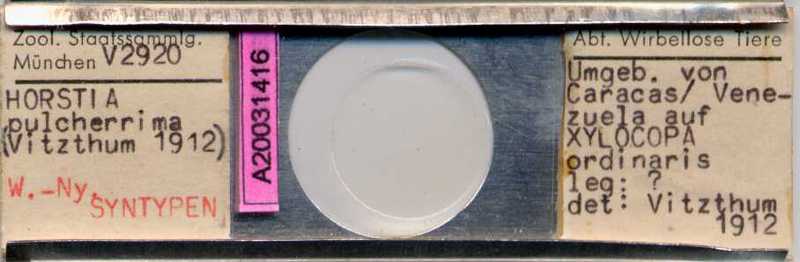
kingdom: Animalia
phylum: Hemichordata
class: Enteropneusta
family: Harrimaniidae
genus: Horstia
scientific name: Horstia
